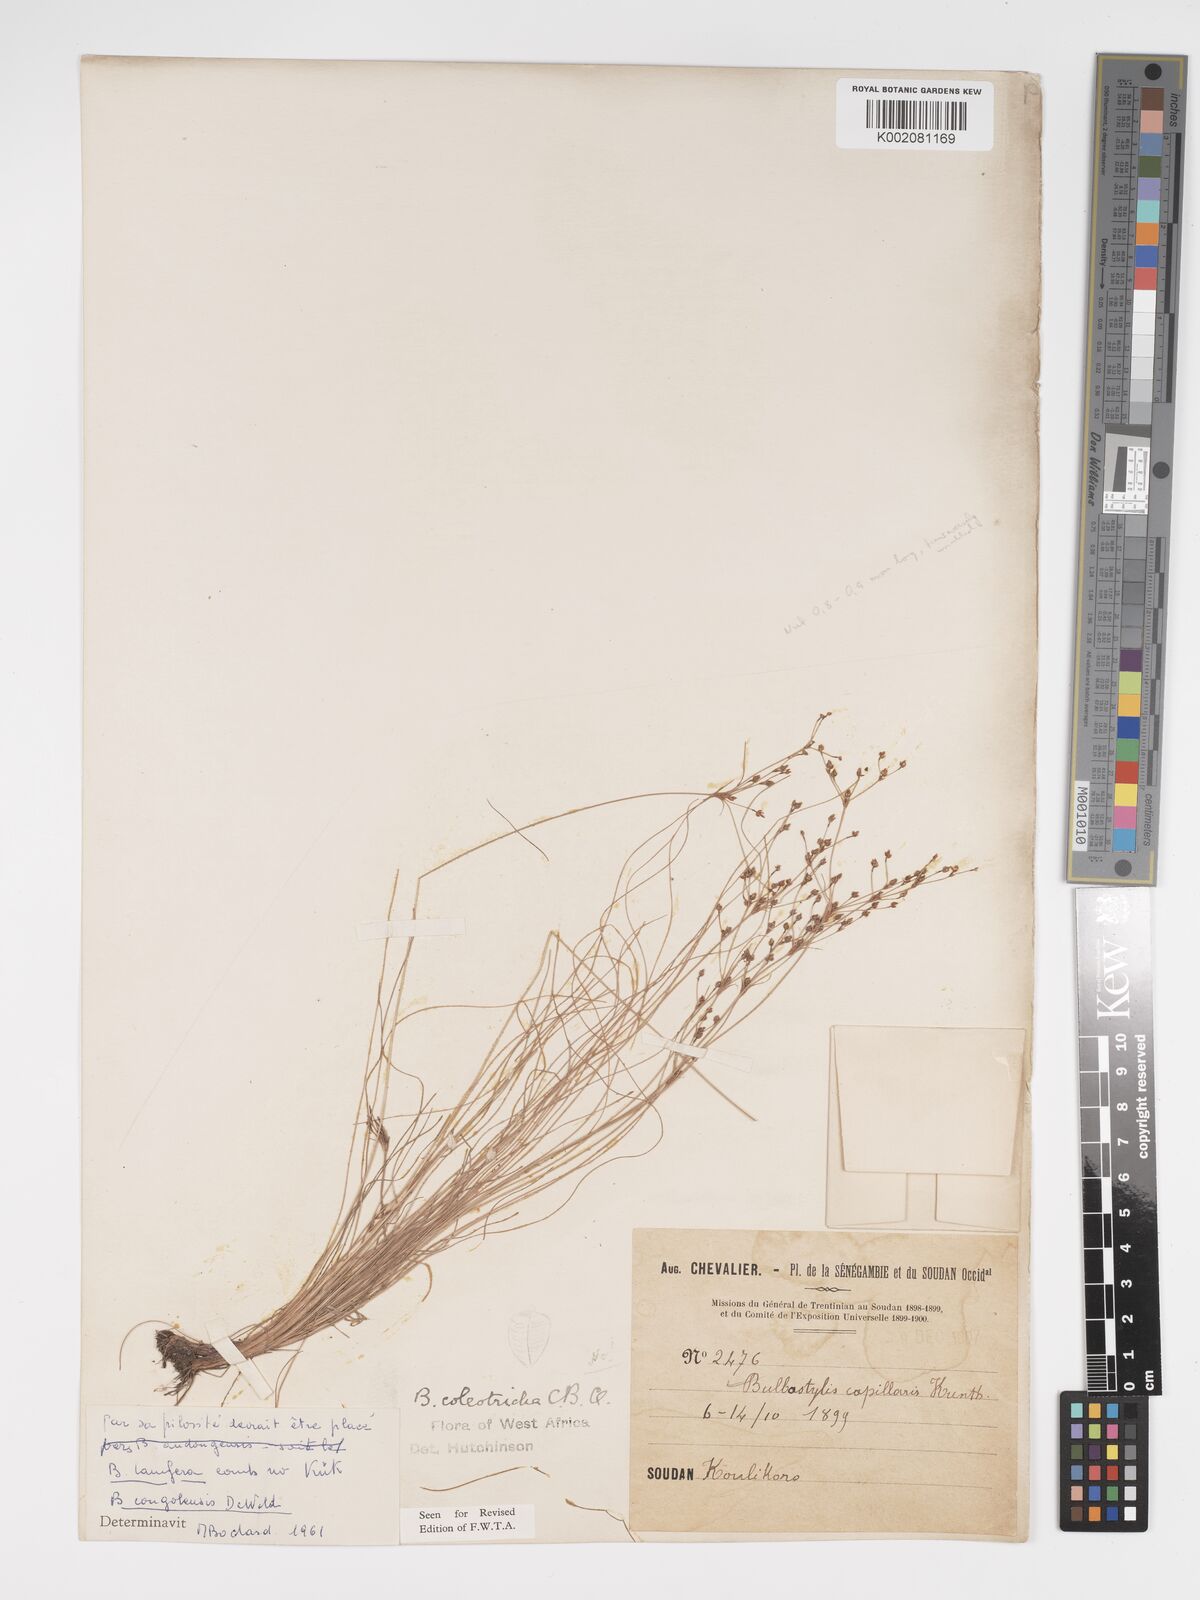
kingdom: Plantae
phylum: Tracheophyta
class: Liliopsida
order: Poales
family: Cyperaceae
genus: Bulbostylis
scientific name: Bulbostylis congolensis
